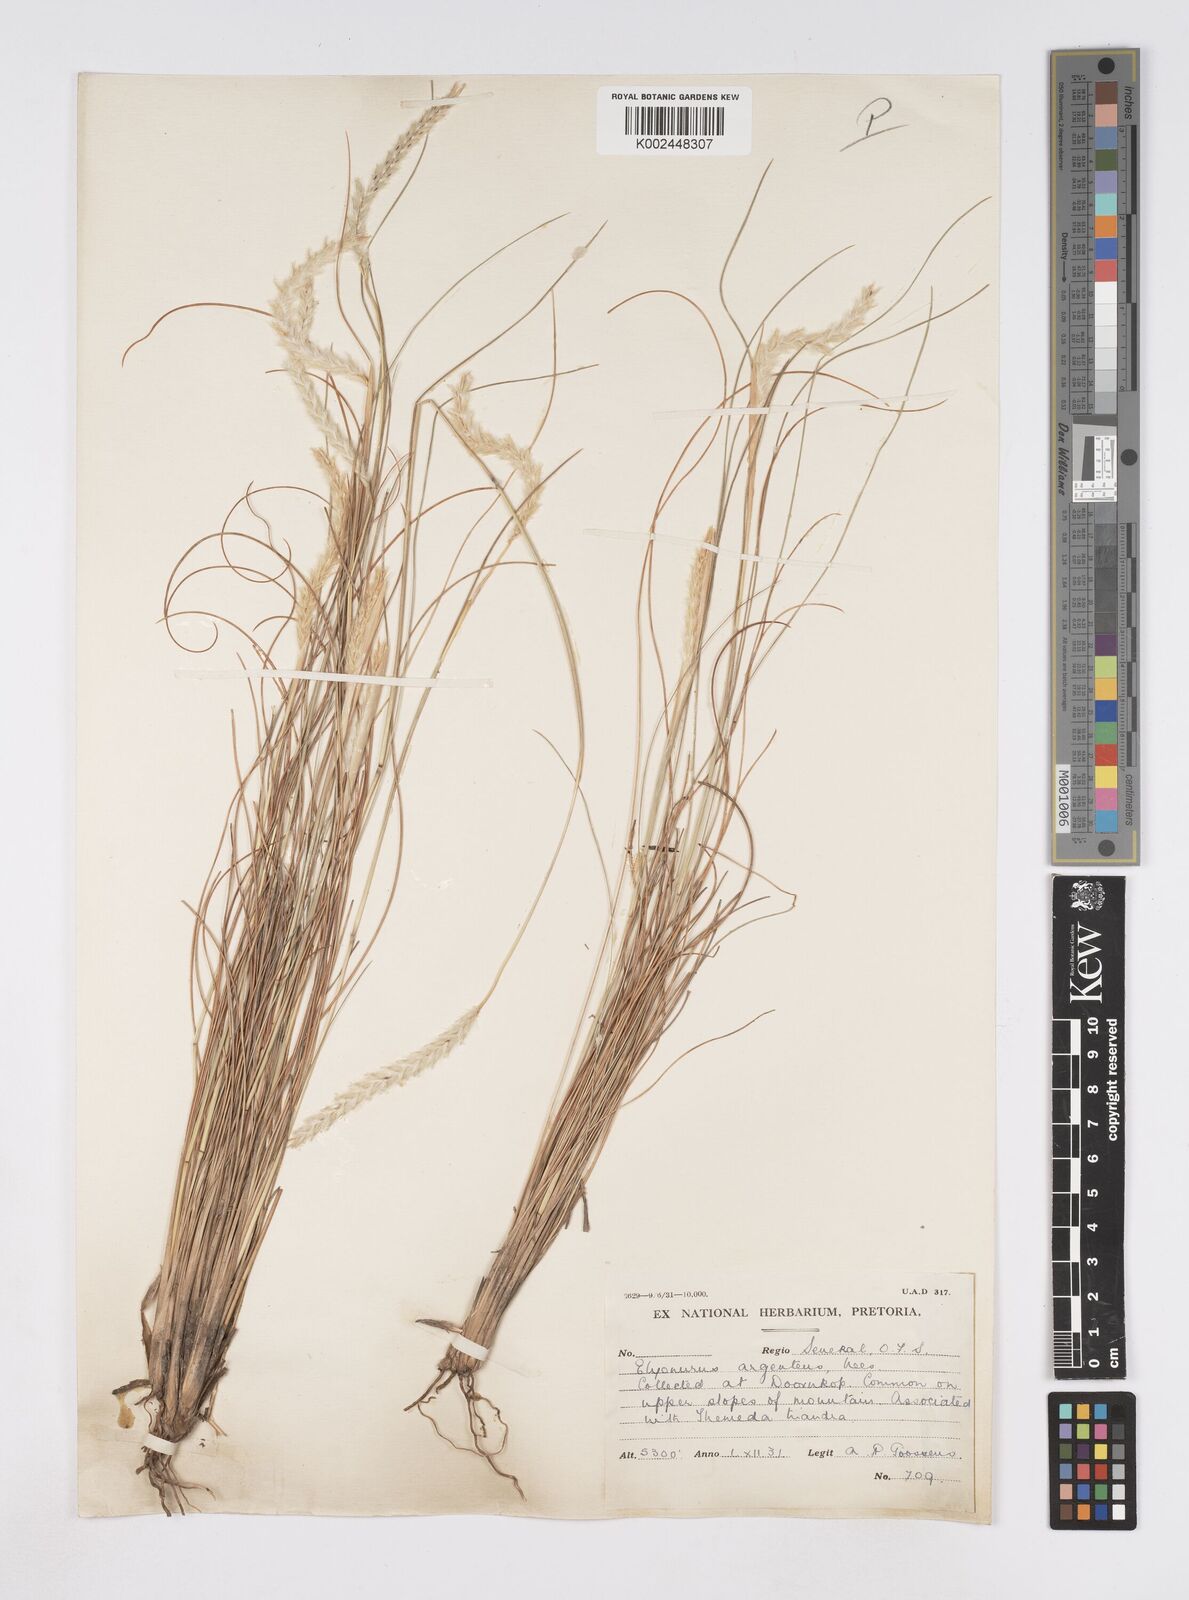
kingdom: Plantae
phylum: Tracheophyta
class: Liliopsida
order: Poales
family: Poaceae
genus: Elionurus
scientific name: Elionurus muticus
